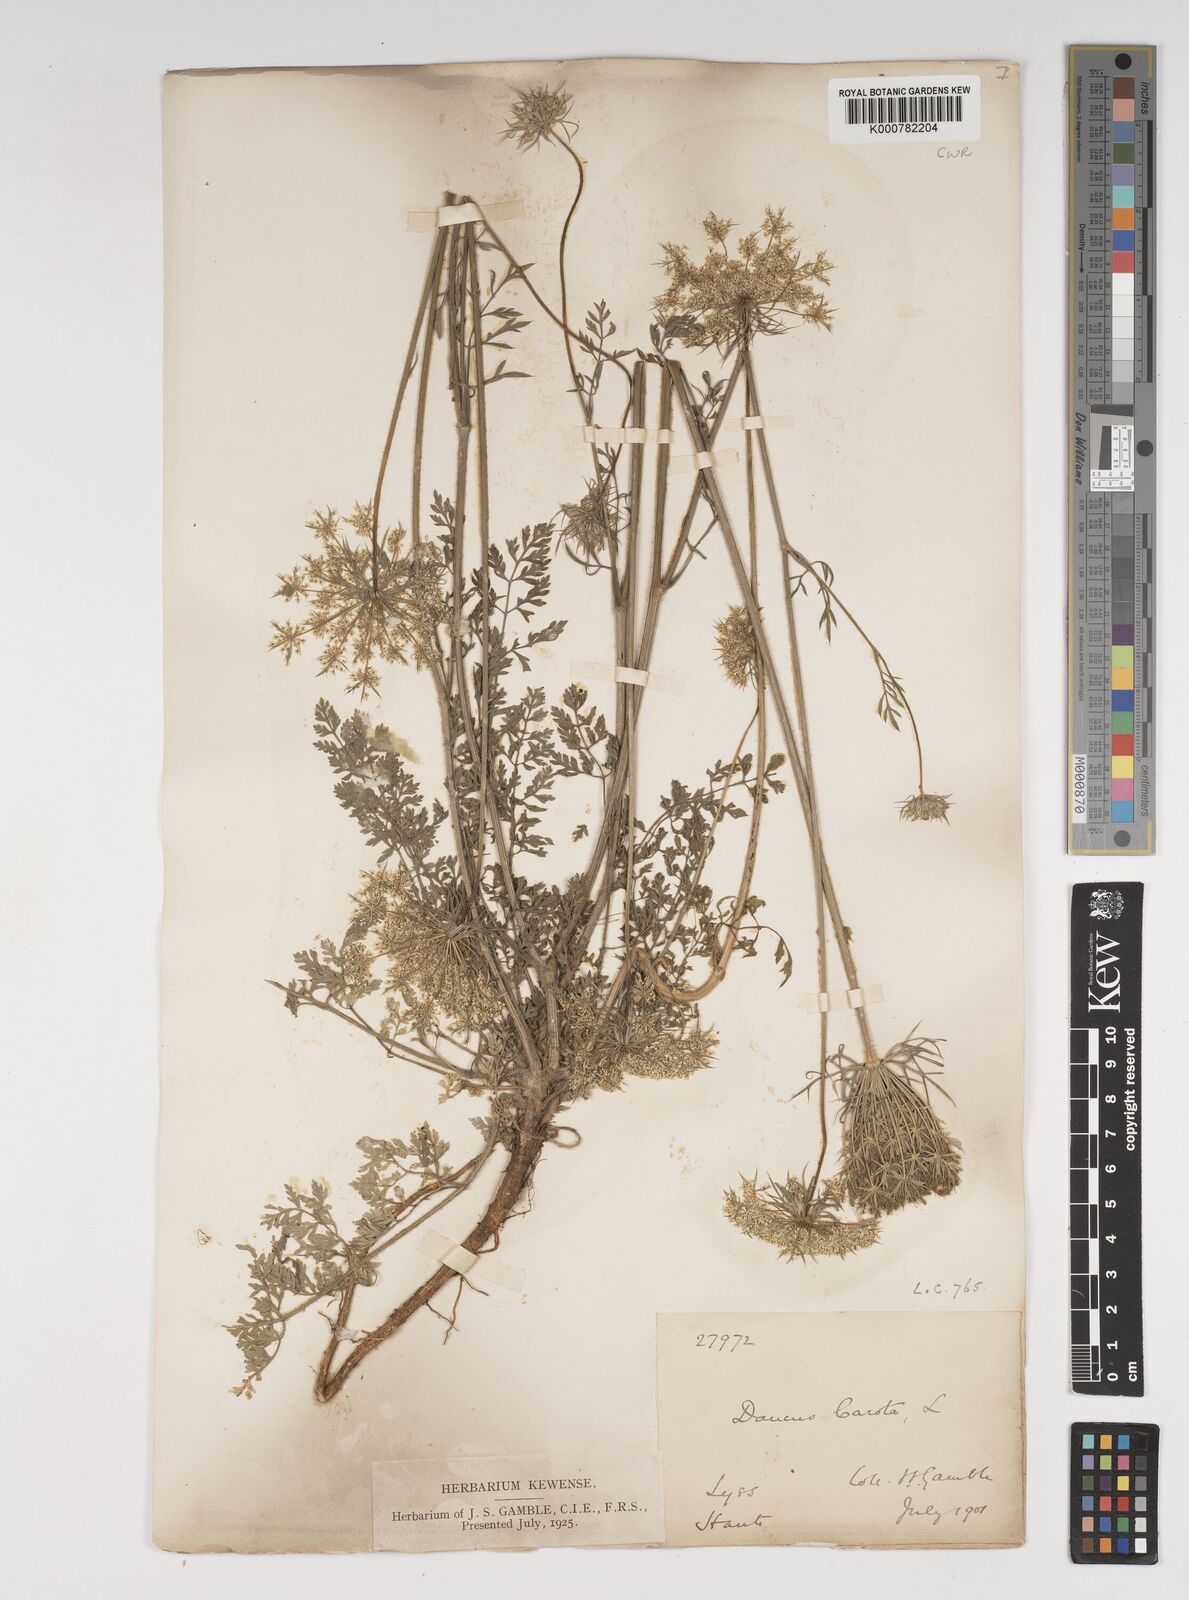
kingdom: Plantae
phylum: Tracheophyta
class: Magnoliopsida
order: Apiales
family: Apiaceae
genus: Daucus
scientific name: Daucus carota
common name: Wild carrot
